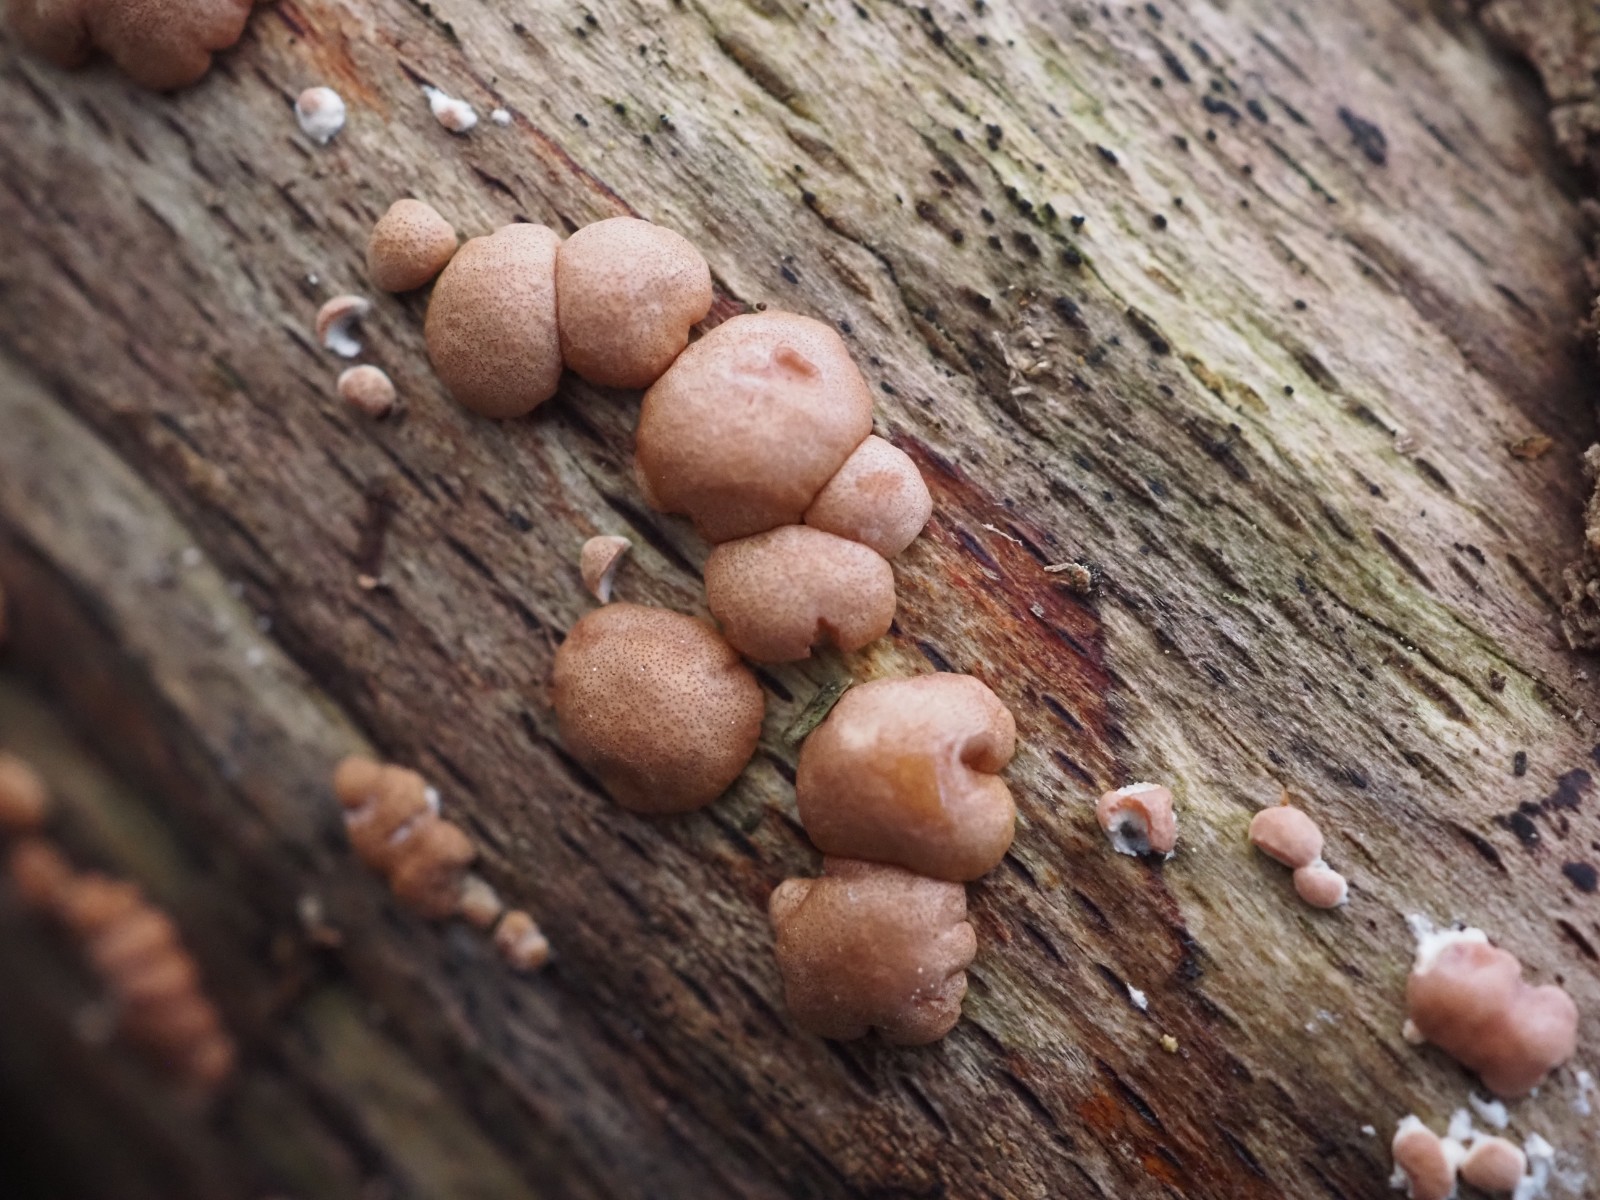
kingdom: Fungi
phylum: Ascomycota
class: Sordariomycetes
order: Hypocreales
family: Hypocreaceae
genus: Trichoderma
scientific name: Trichoderma europaeum
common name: rosabrun kødkerne
